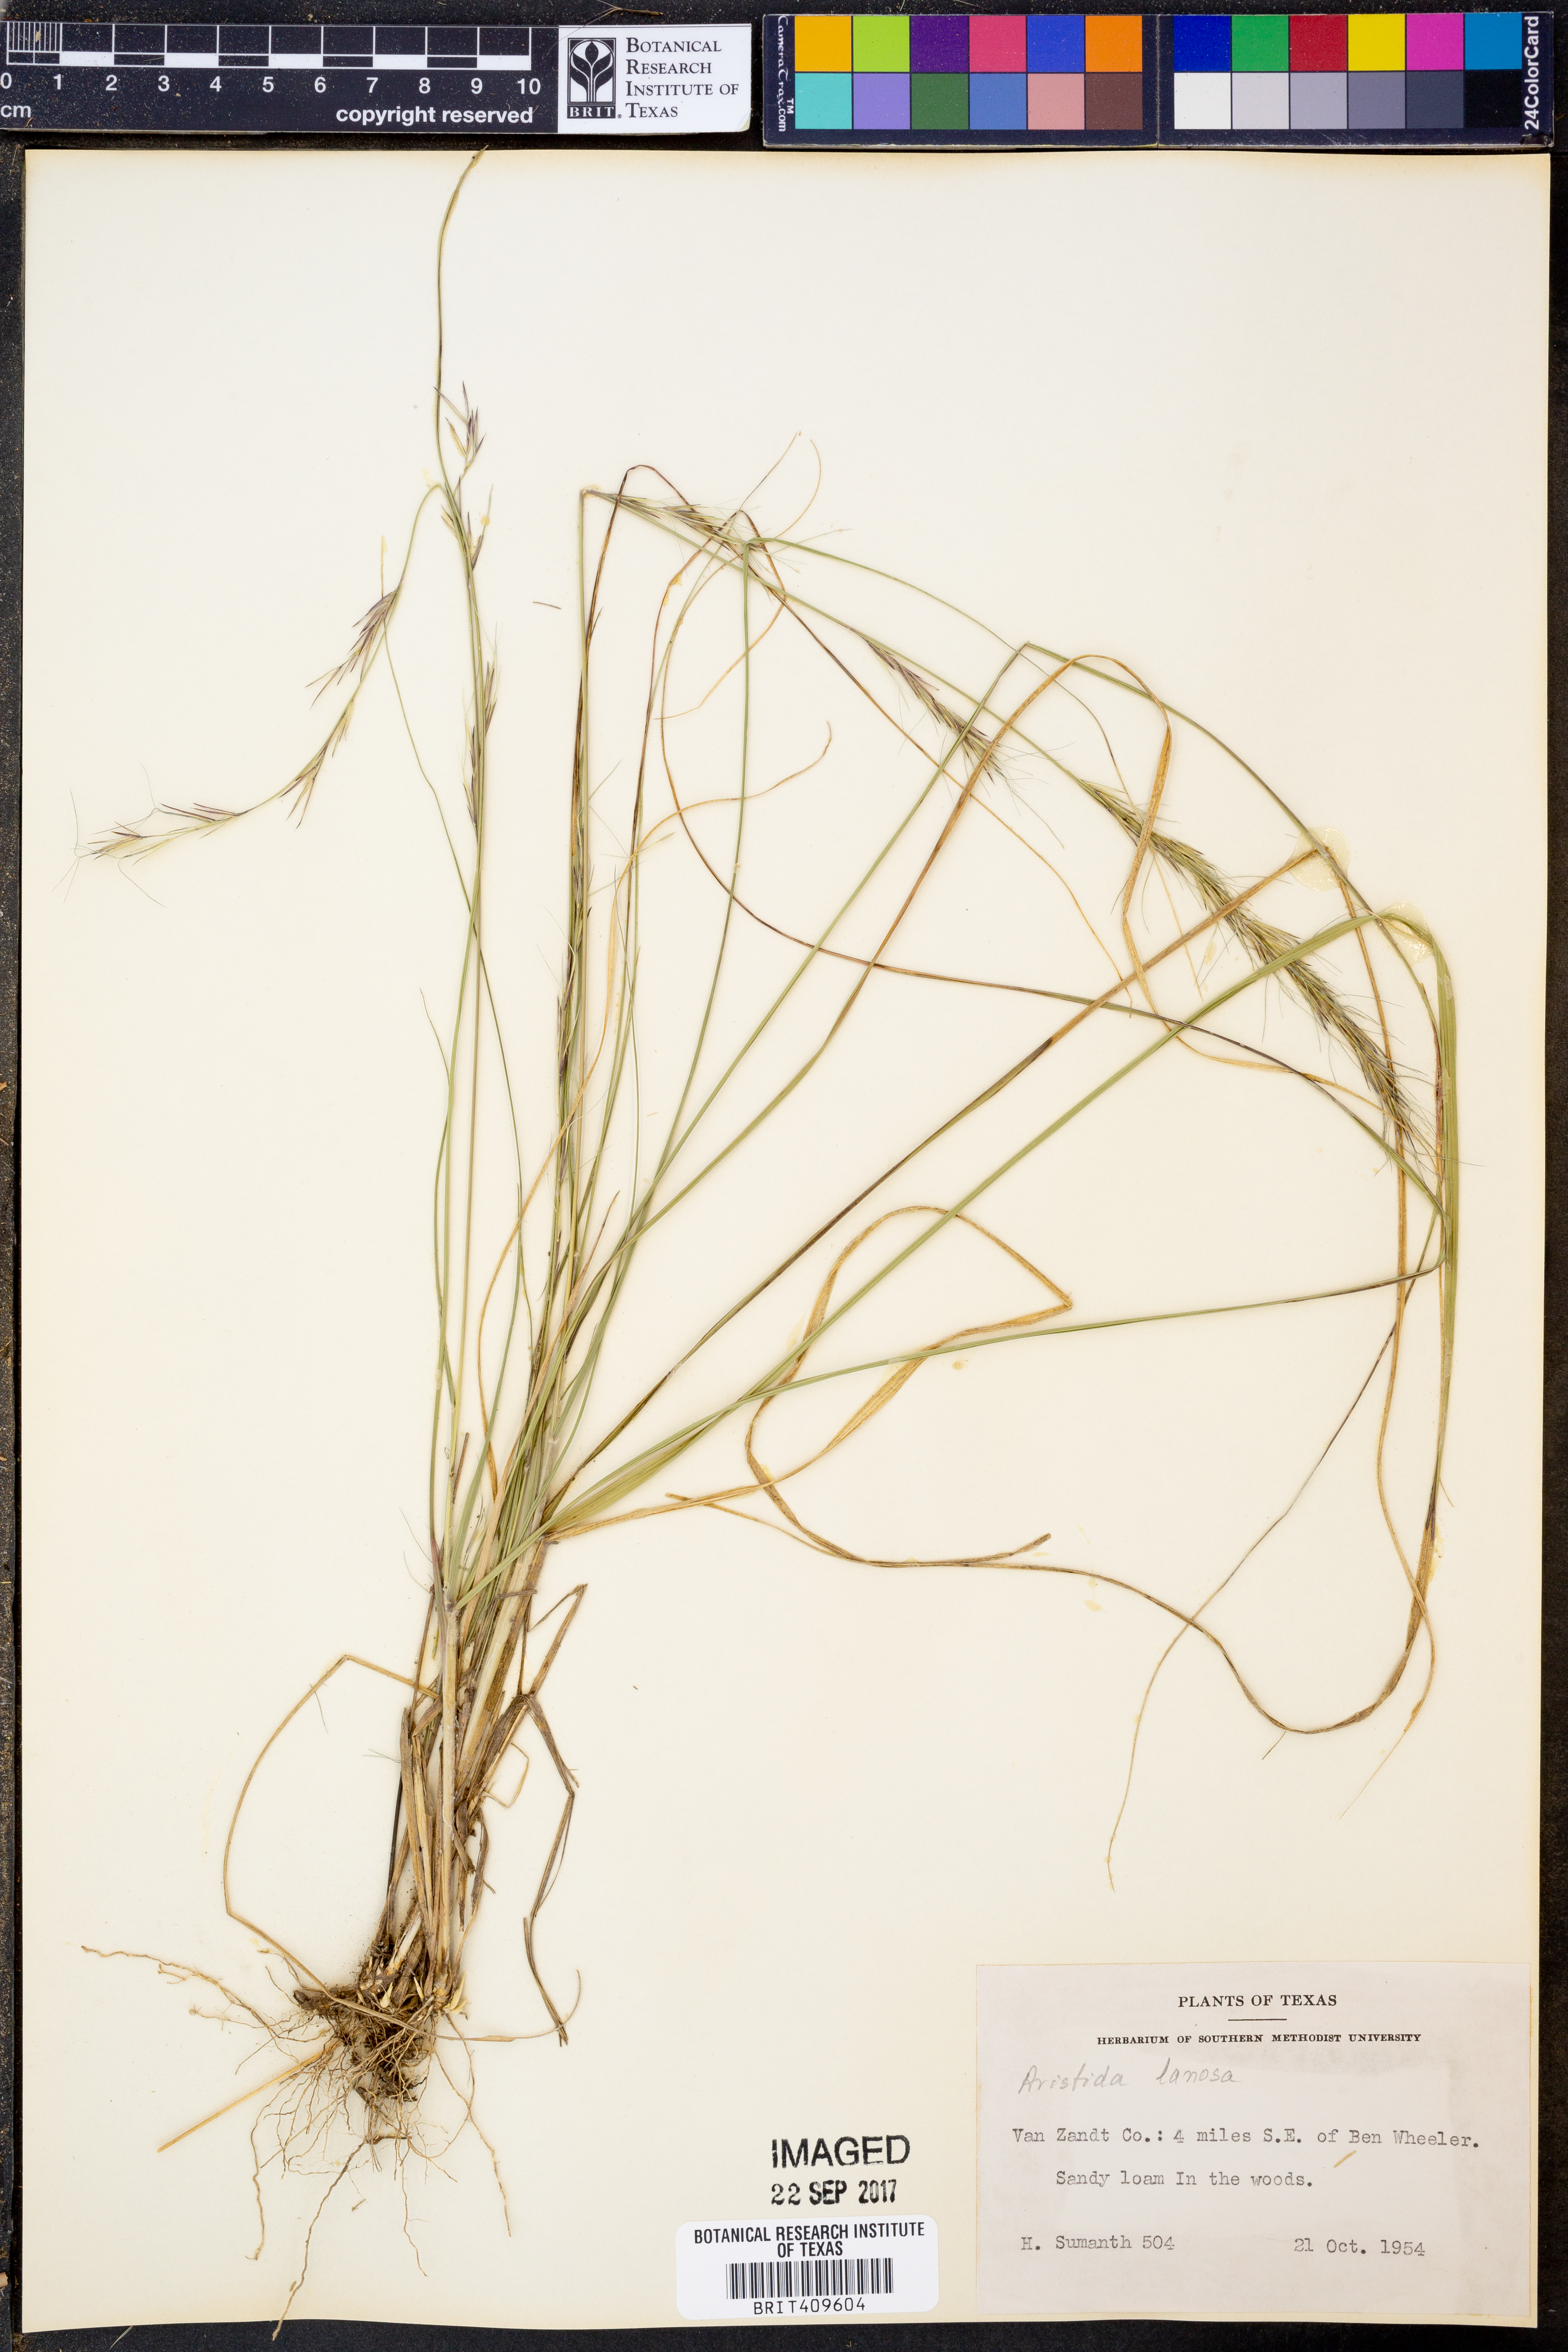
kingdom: Plantae
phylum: Tracheophyta
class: Liliopsida
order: Poales
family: Poaceae
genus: Aristida
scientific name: Aristida lanosa
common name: Woolly three-awn
